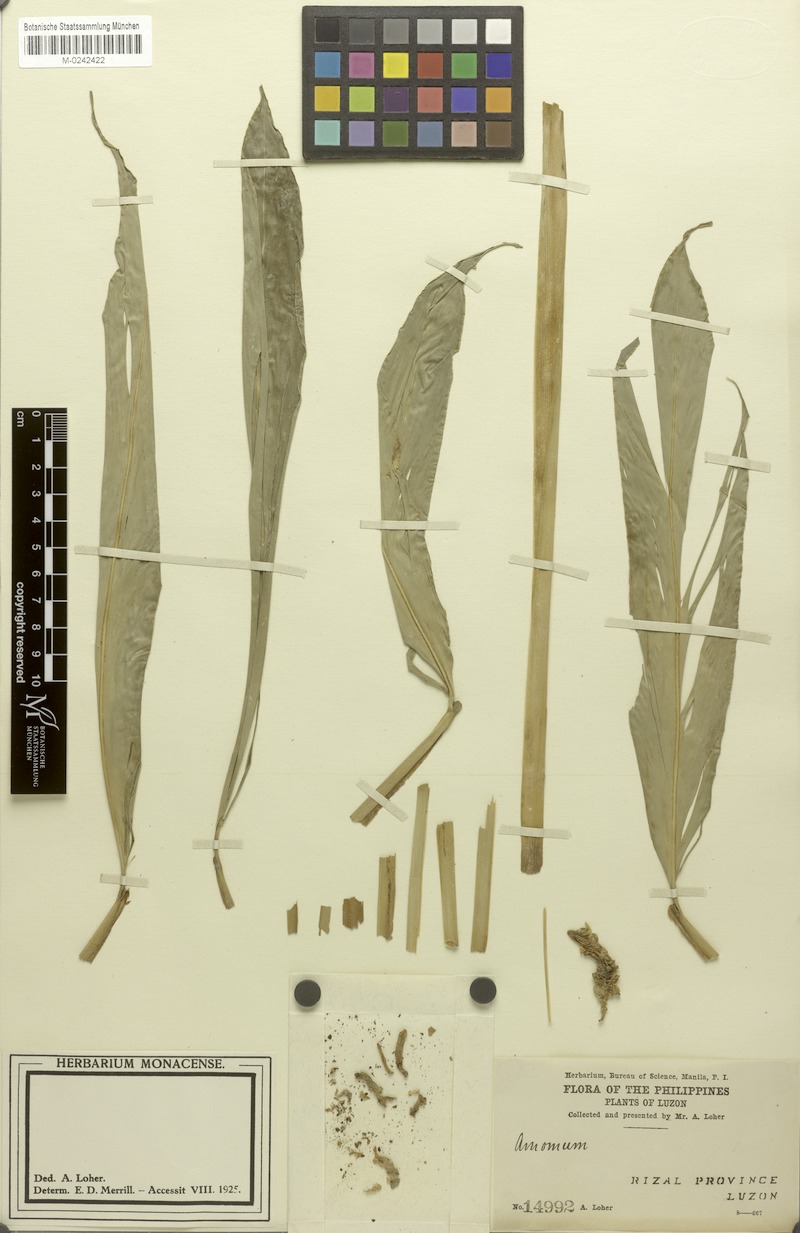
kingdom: Plantae
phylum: Tracheophyta
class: Liliopsida
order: Zingiberales
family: Zingiberaceae
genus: Amomum
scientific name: Amomum
